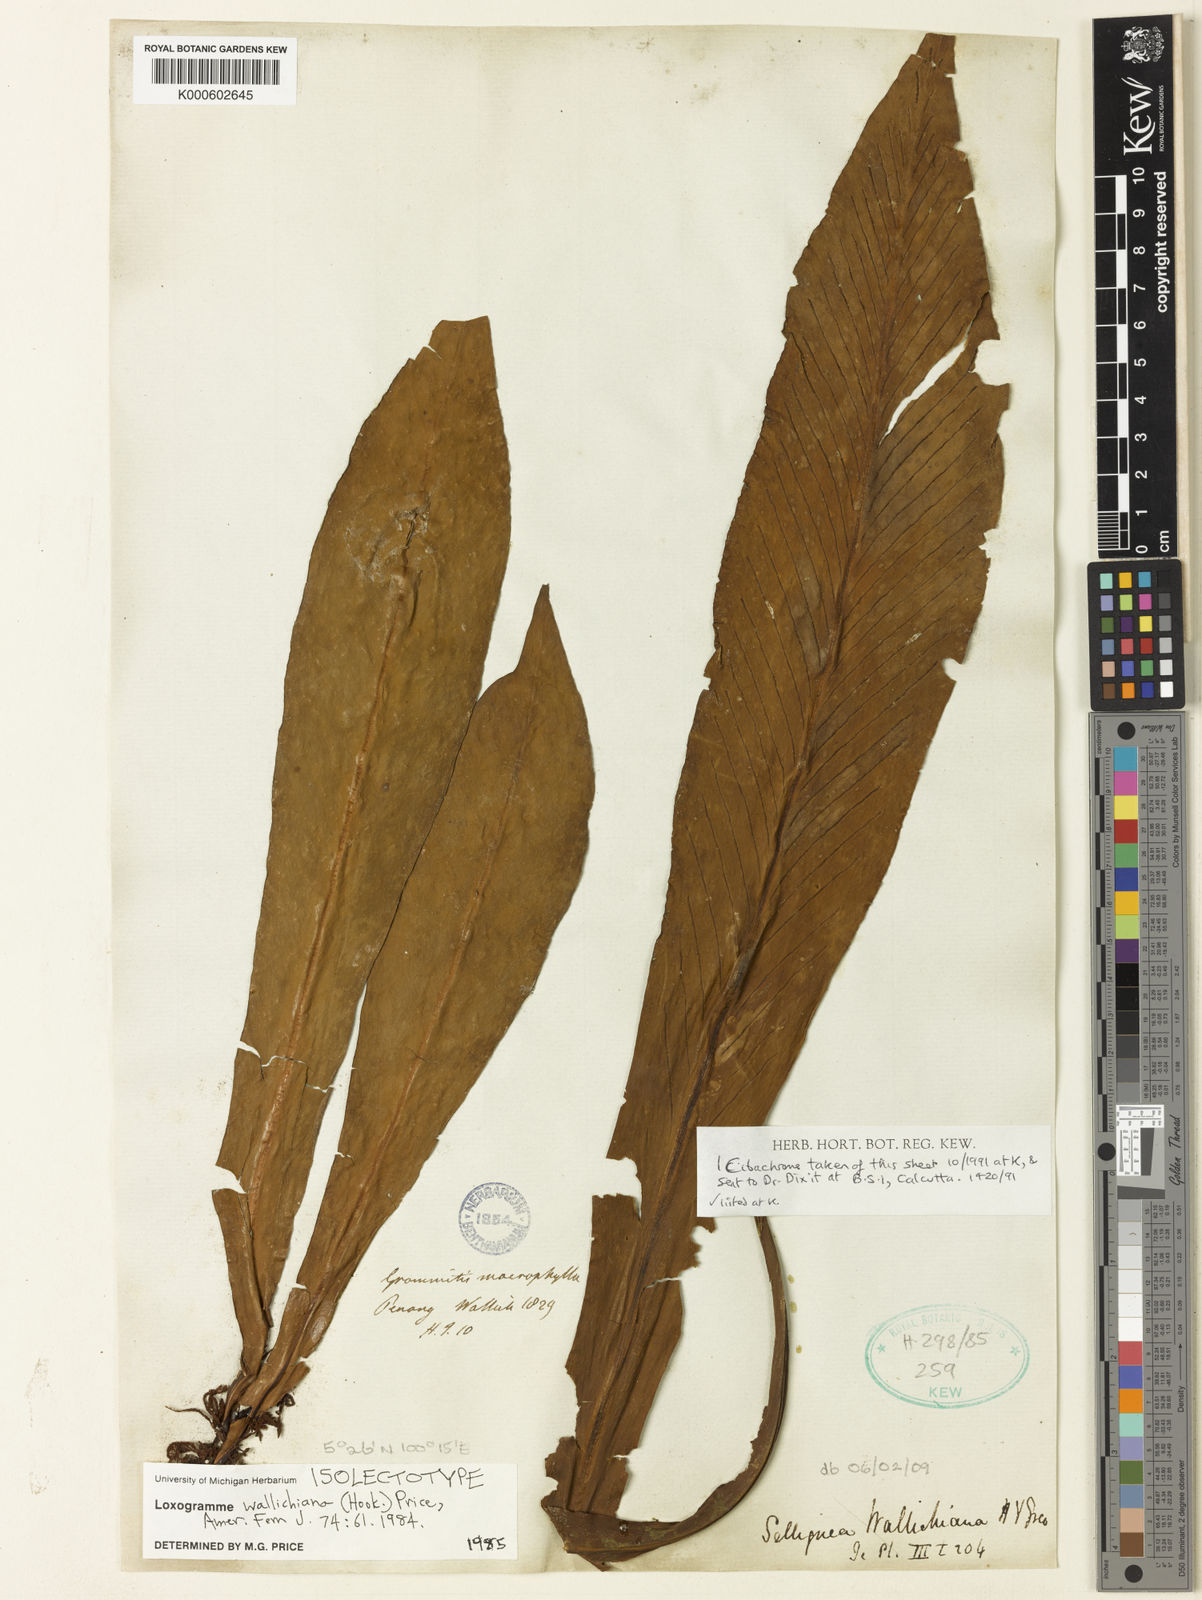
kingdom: Plantae
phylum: Tracheophyta
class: Polypodiopsida
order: Polypodiales
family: Polypodiaceae
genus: Loxogramme
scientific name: Loxogramme wallichiana
